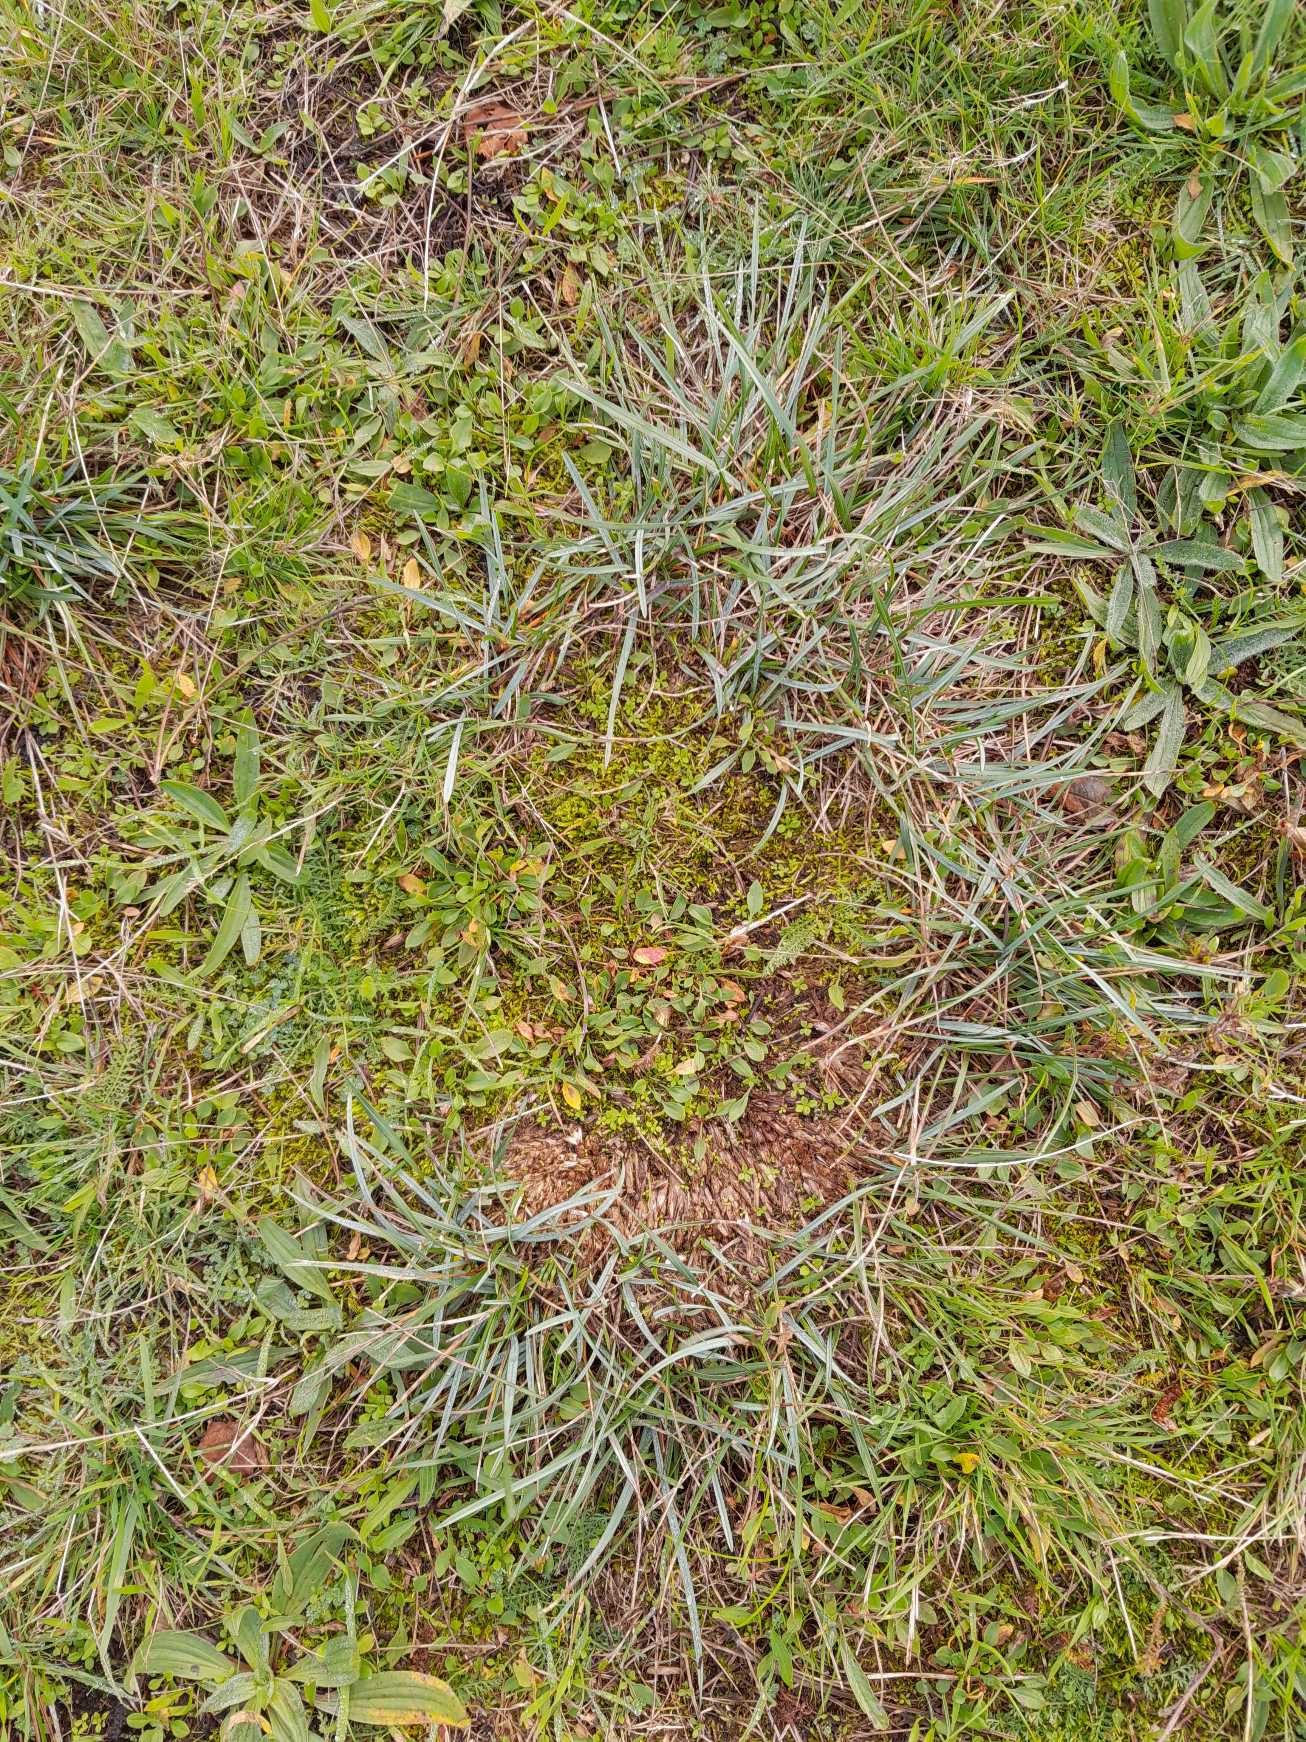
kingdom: Plantae
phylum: Tracheophyta
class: Liliopsida
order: Poales
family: Poaceae
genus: Helictochloa
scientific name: Helictochloa pratensis
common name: Eng-havre
